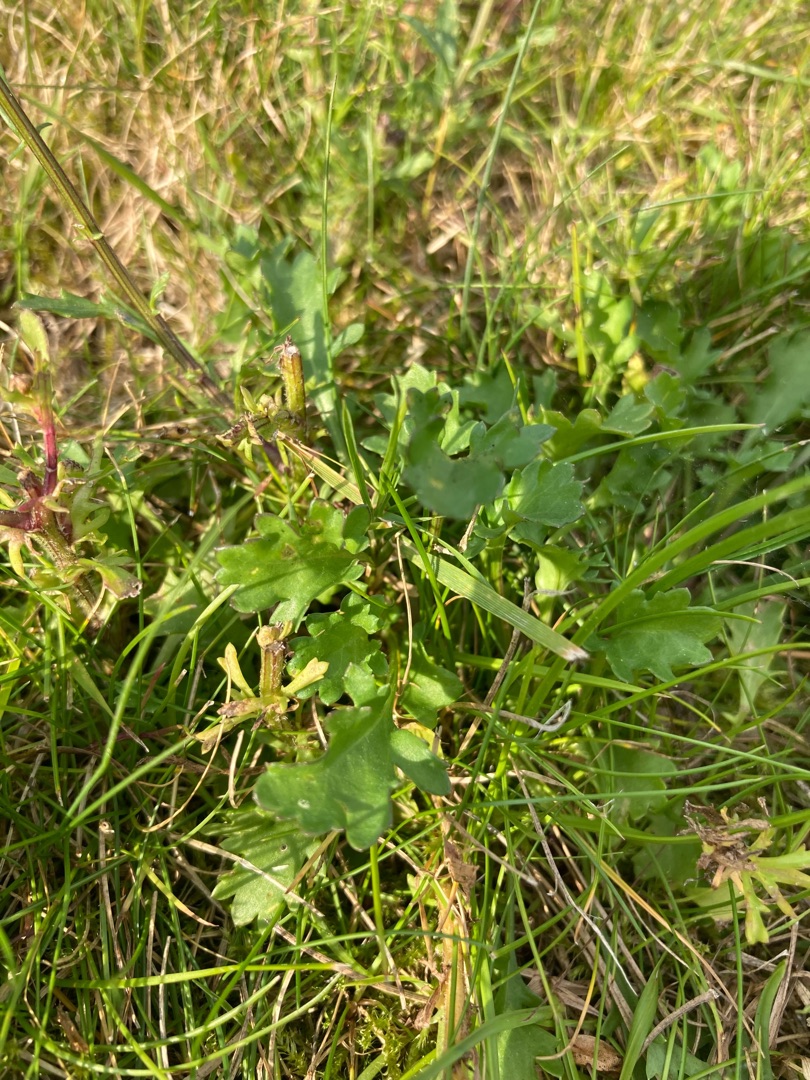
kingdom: Plantae
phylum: Tracheophyta
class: Magnoliopsida
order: Asterales
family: Asteraceae
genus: Leucanthemum
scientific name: Leucanthemum vulgare
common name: Hvid okseøje
